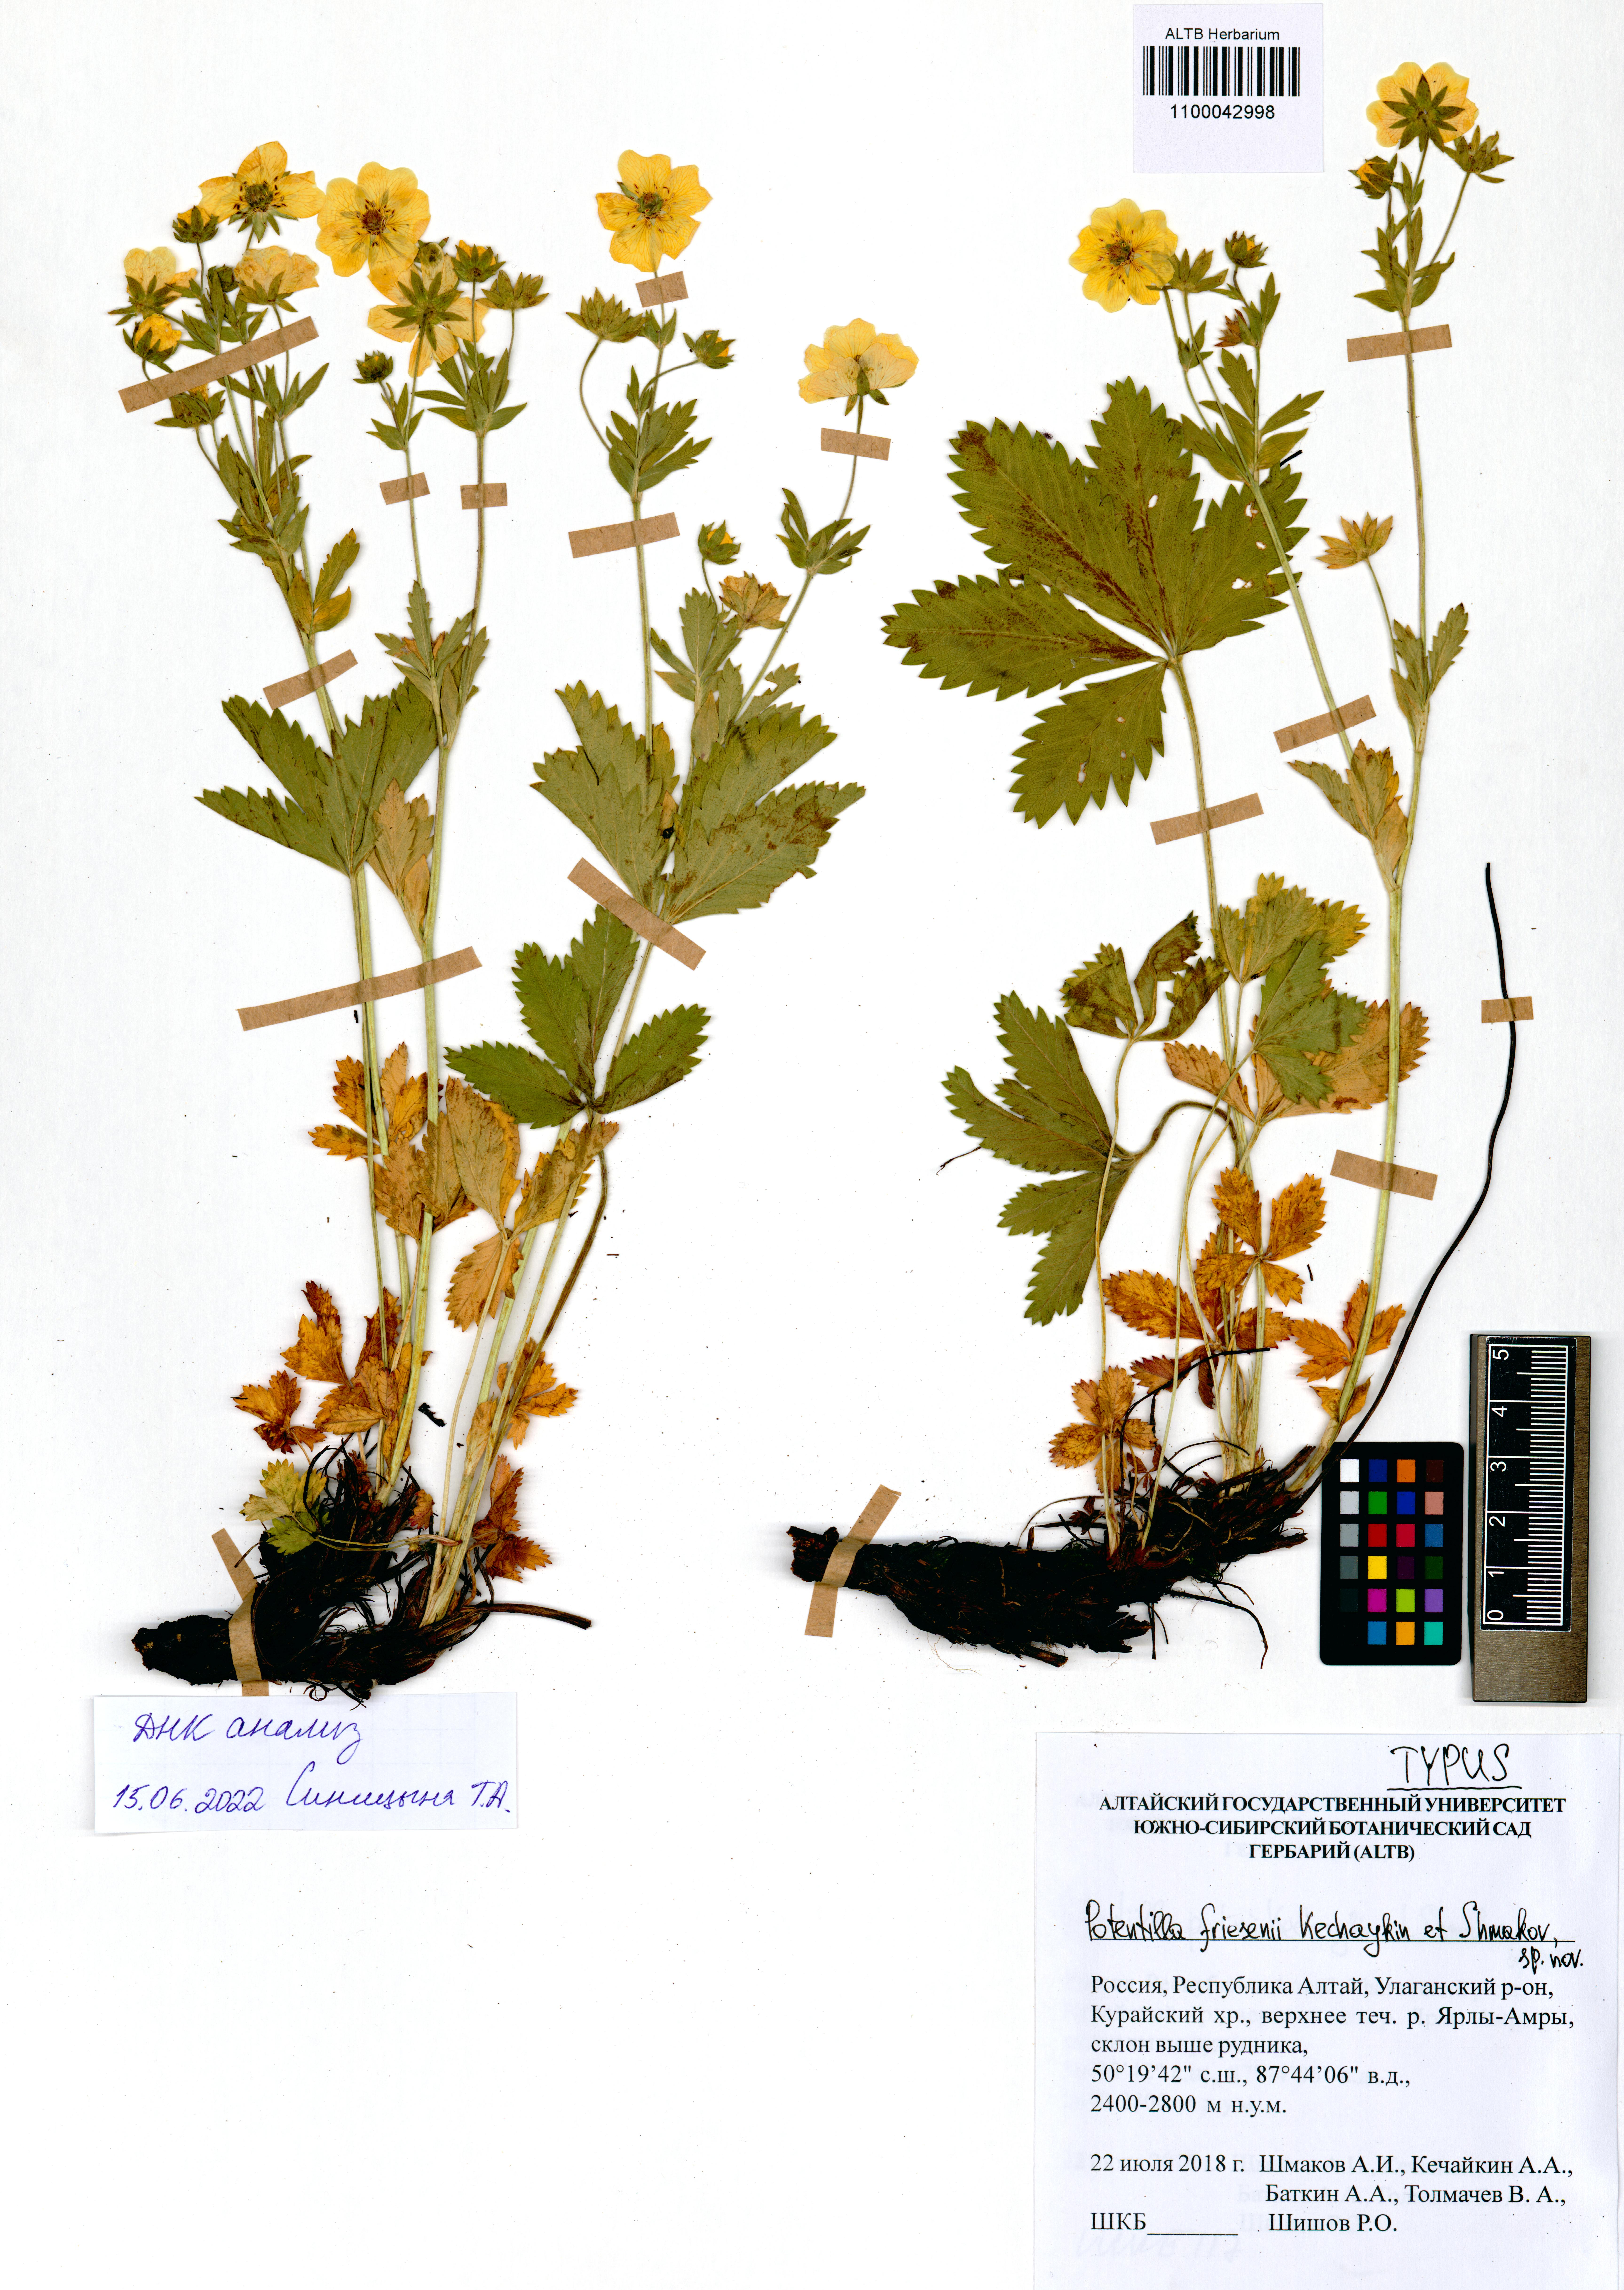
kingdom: Plantae
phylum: Tracheophyta
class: Magnoliopsida
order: Rosales
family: Rosaceae
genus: Potentilla
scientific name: Potentilla friesenii
